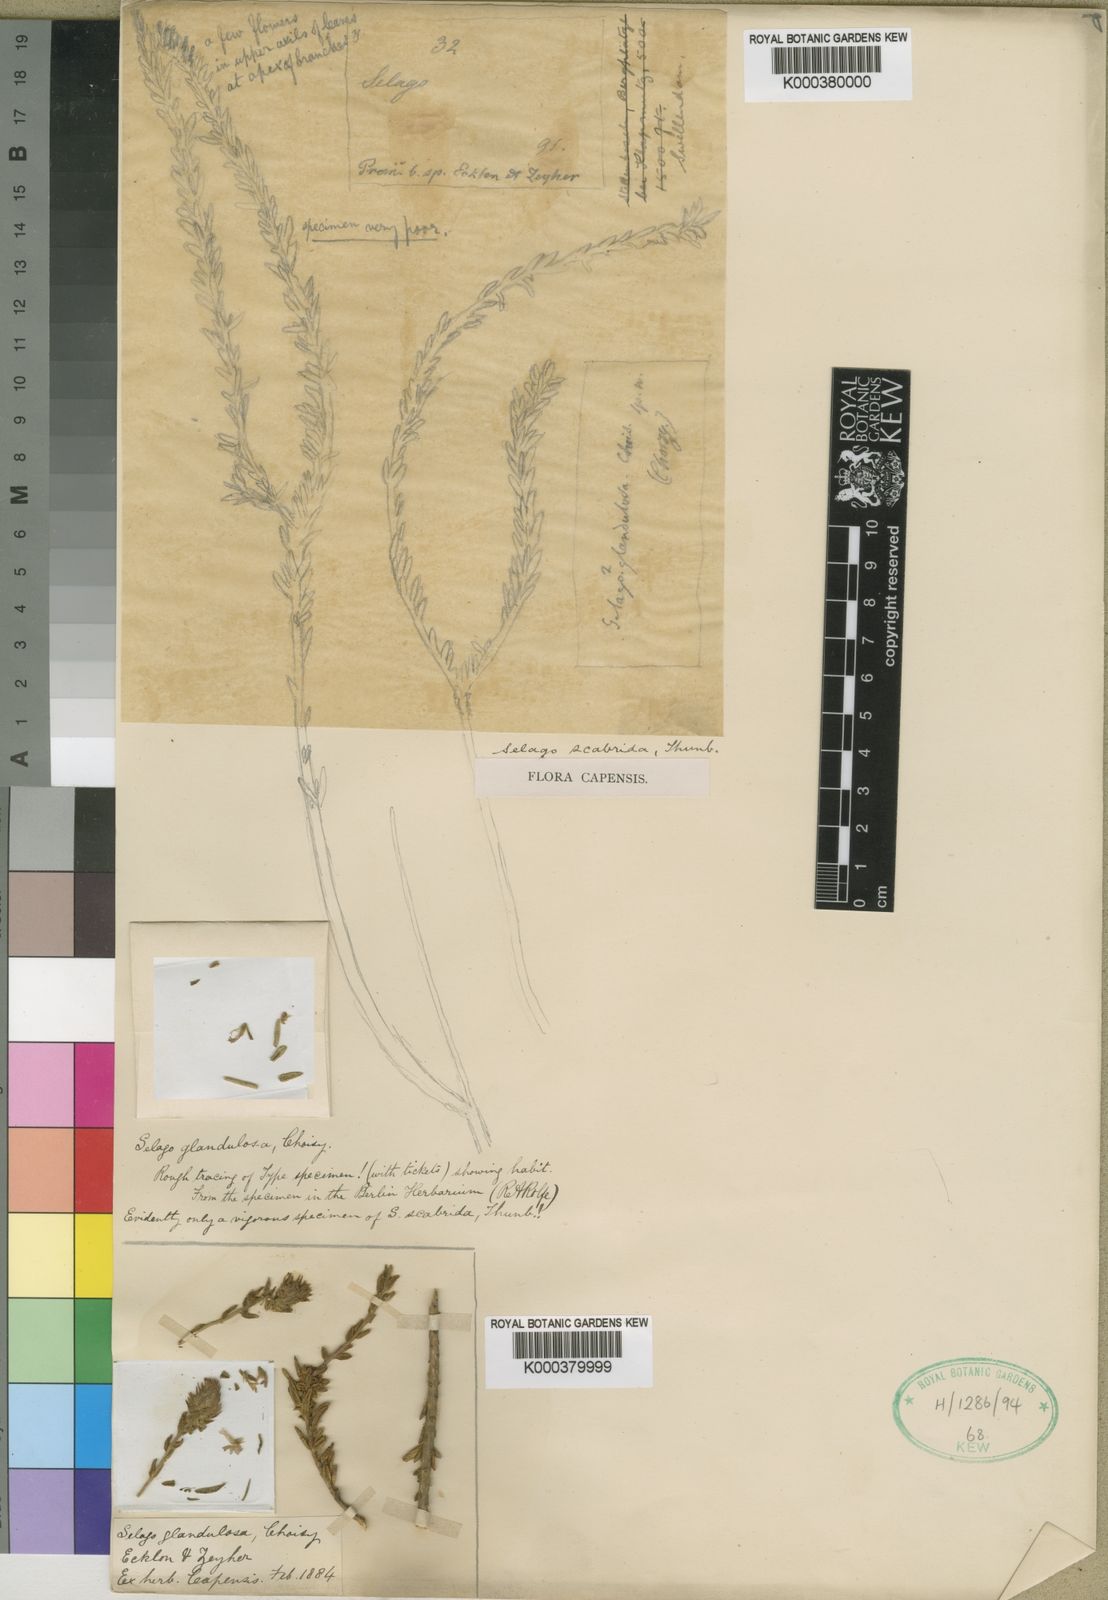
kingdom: Plantae
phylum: Tracheophyta
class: Magnoliopsida
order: Lamiales
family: Scrophulariaceae
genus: Selago
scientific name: Selago glandulosa
